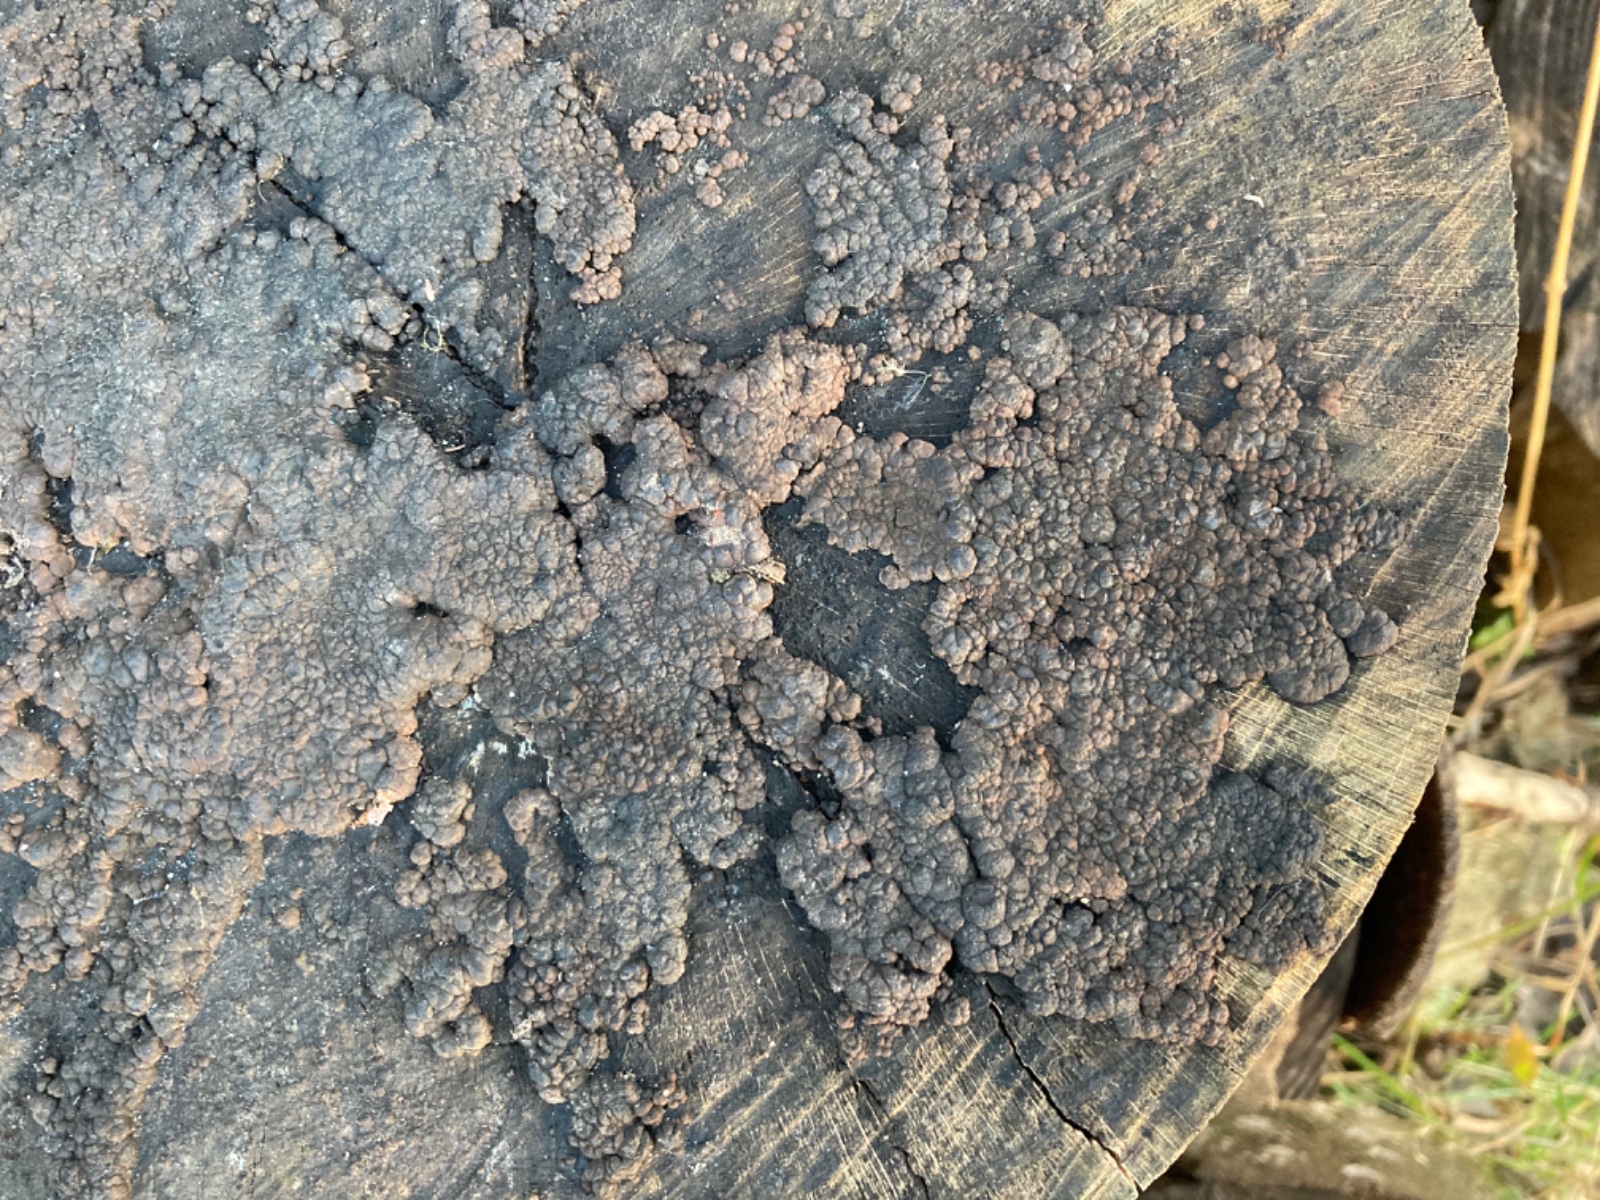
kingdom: Fungi
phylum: Ascomycota
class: Sordariomycetes
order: Xylariales
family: Hypoxylaceae
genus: Jackrogersella
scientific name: Jackrogersella cohaerens
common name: sammenflydende kulbær
